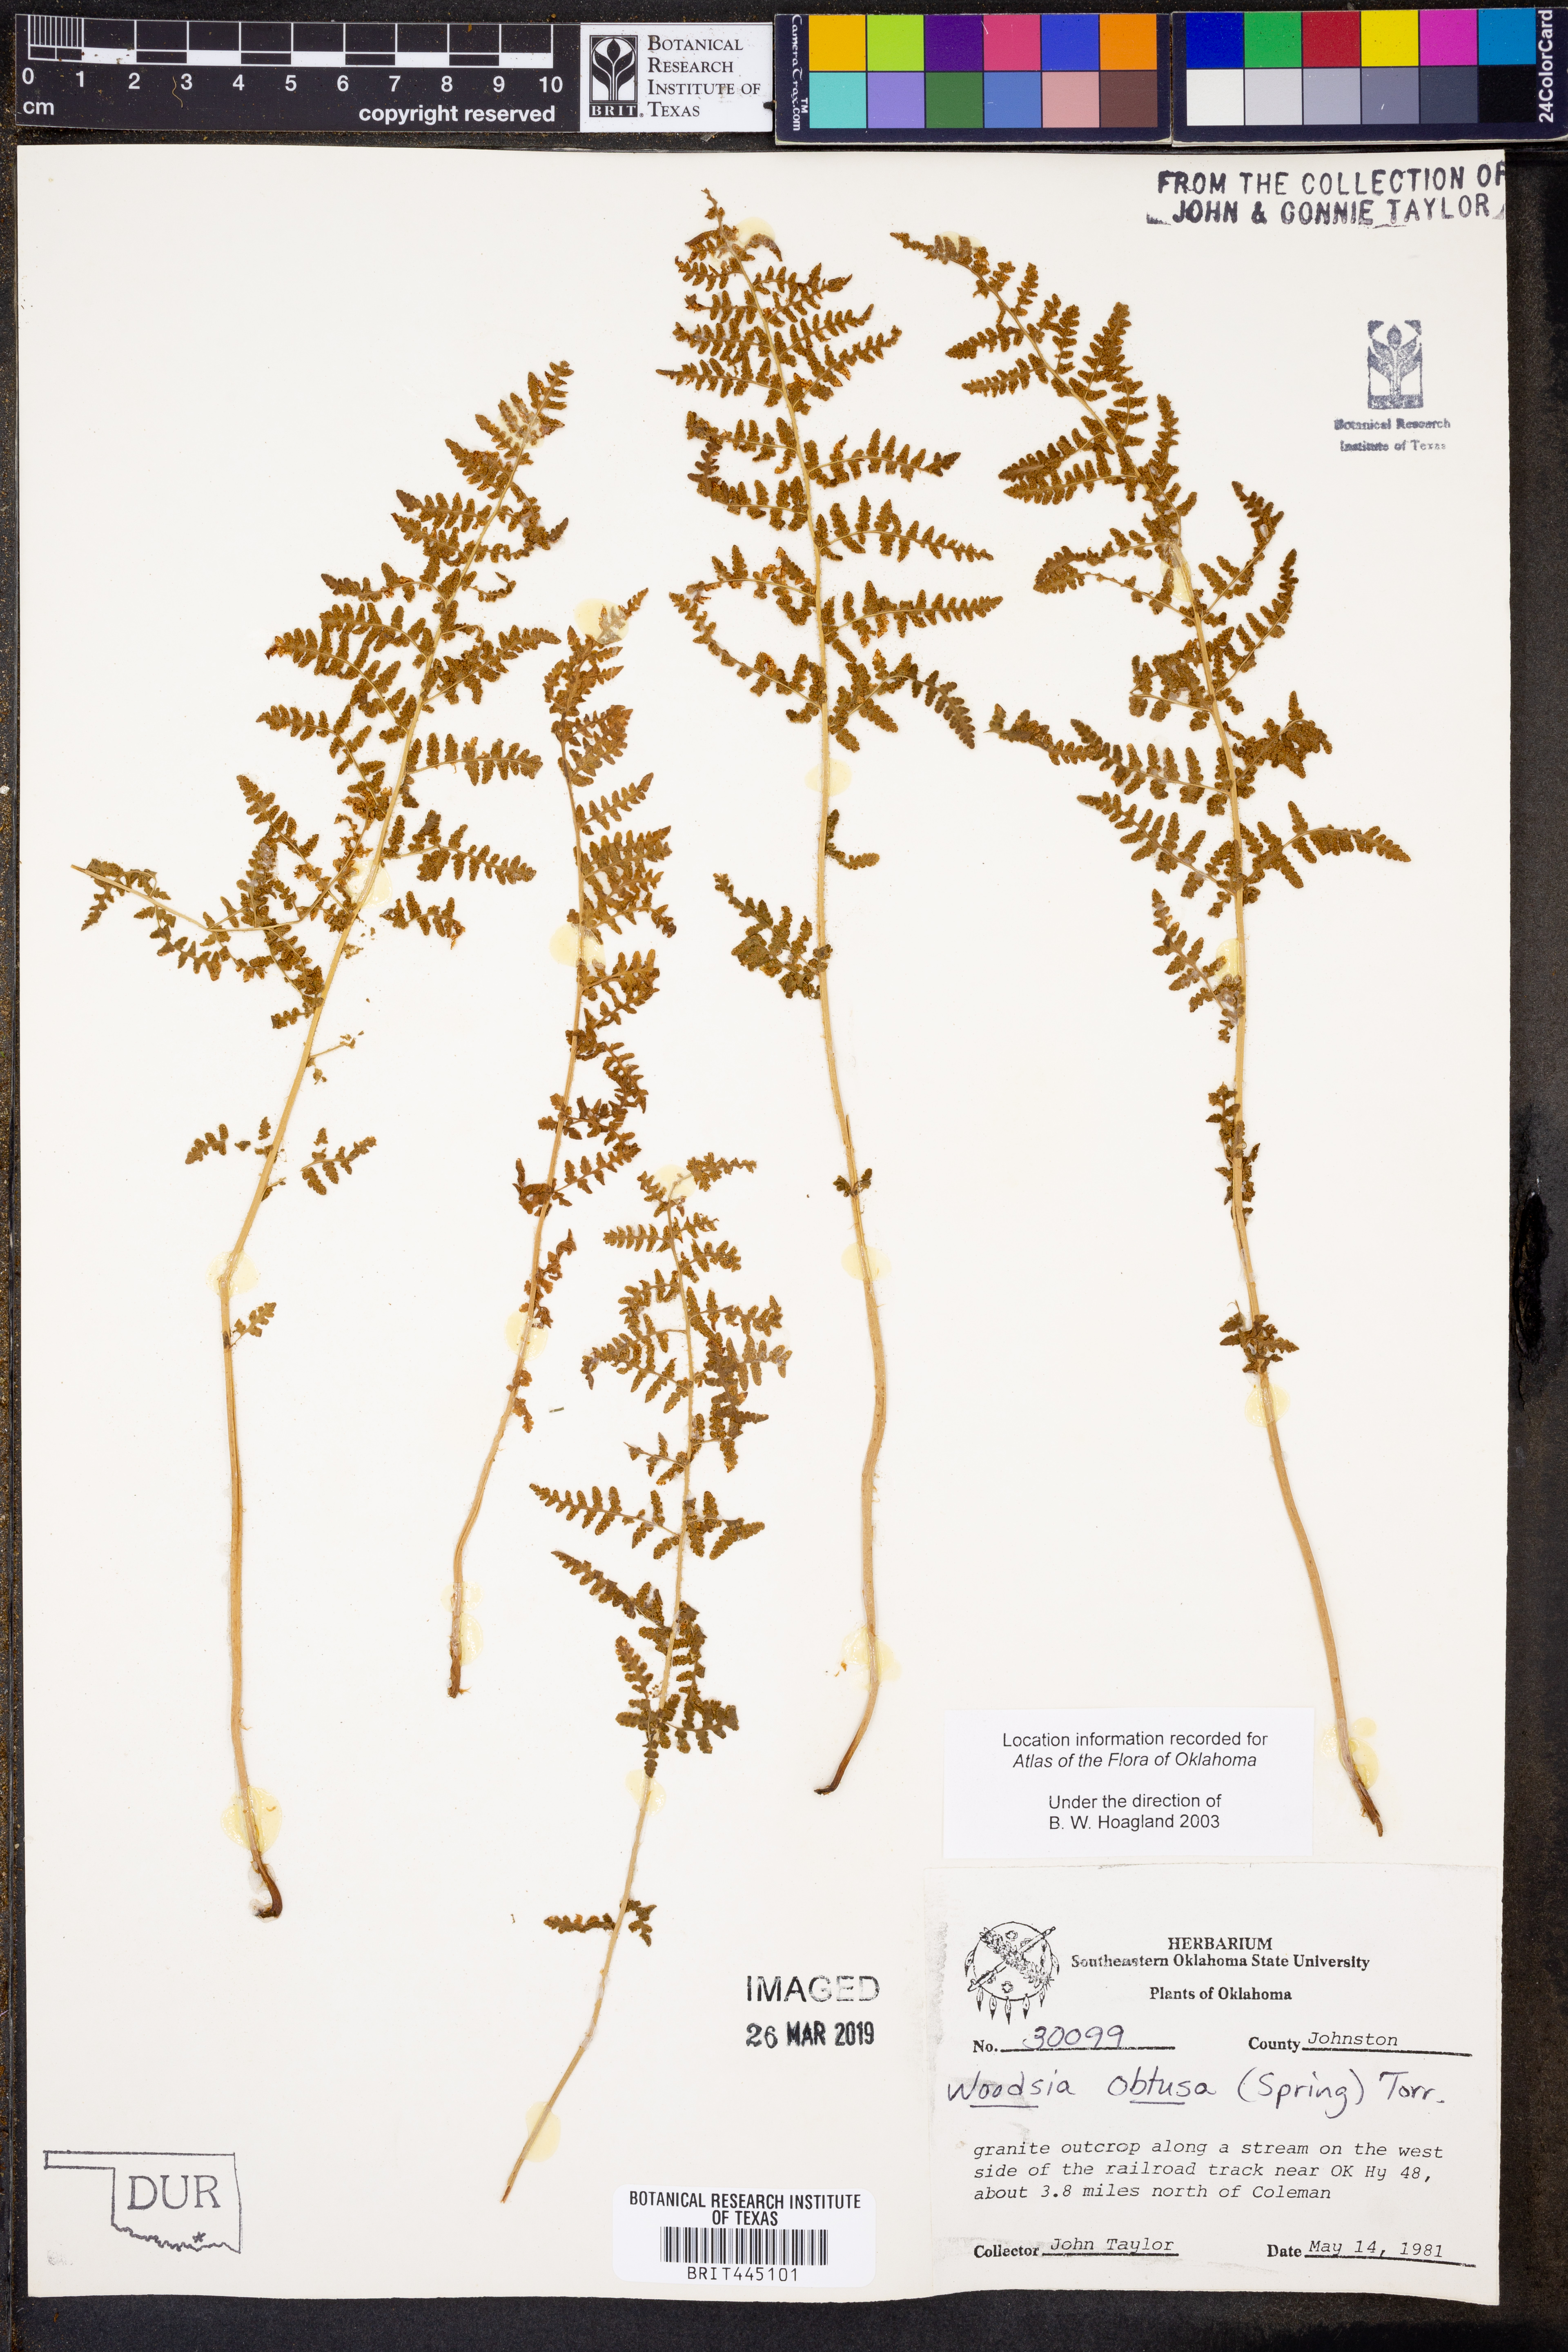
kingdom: Plantae
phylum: Tracheophyta
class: Polypodiopsida
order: Polypodiales
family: Woodsiaceae
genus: Physematium
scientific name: Physematium obtusum
